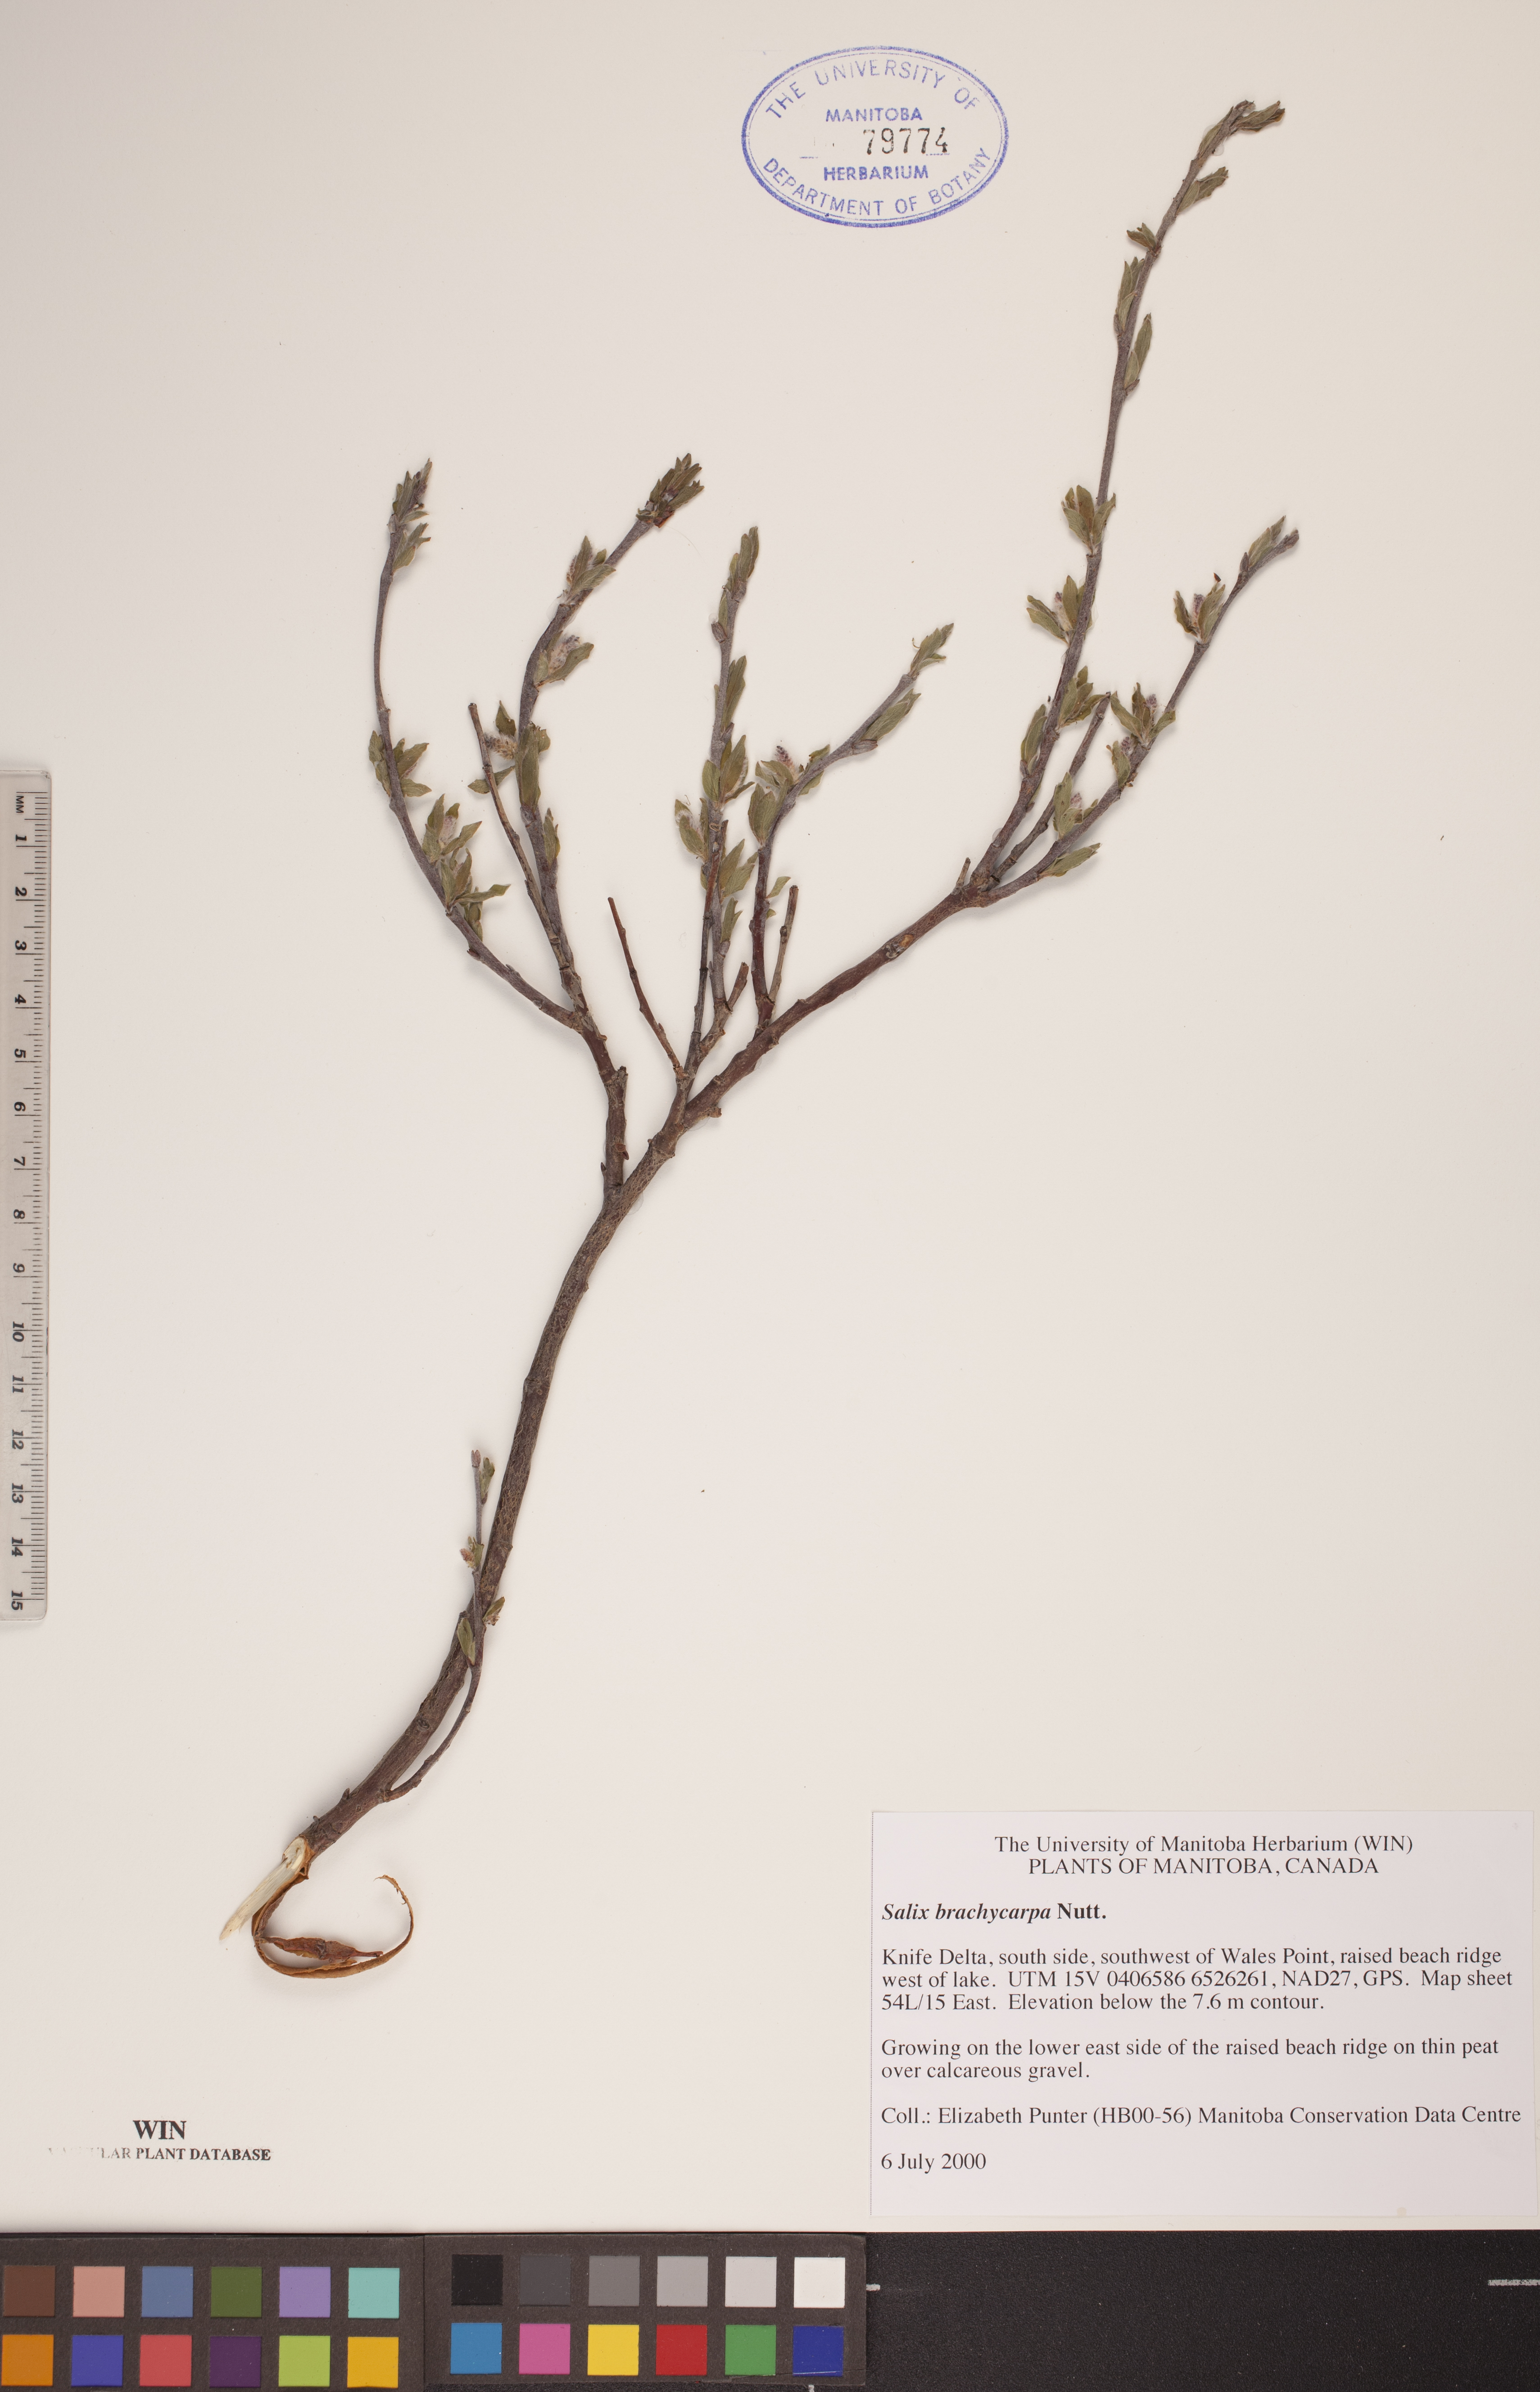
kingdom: Plantae
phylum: Tracheophyta
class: Magnoliopsida
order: Malpighiales
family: Salicaceae
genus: Salix
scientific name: Salix brachycarpa
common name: Barren-ground willow
